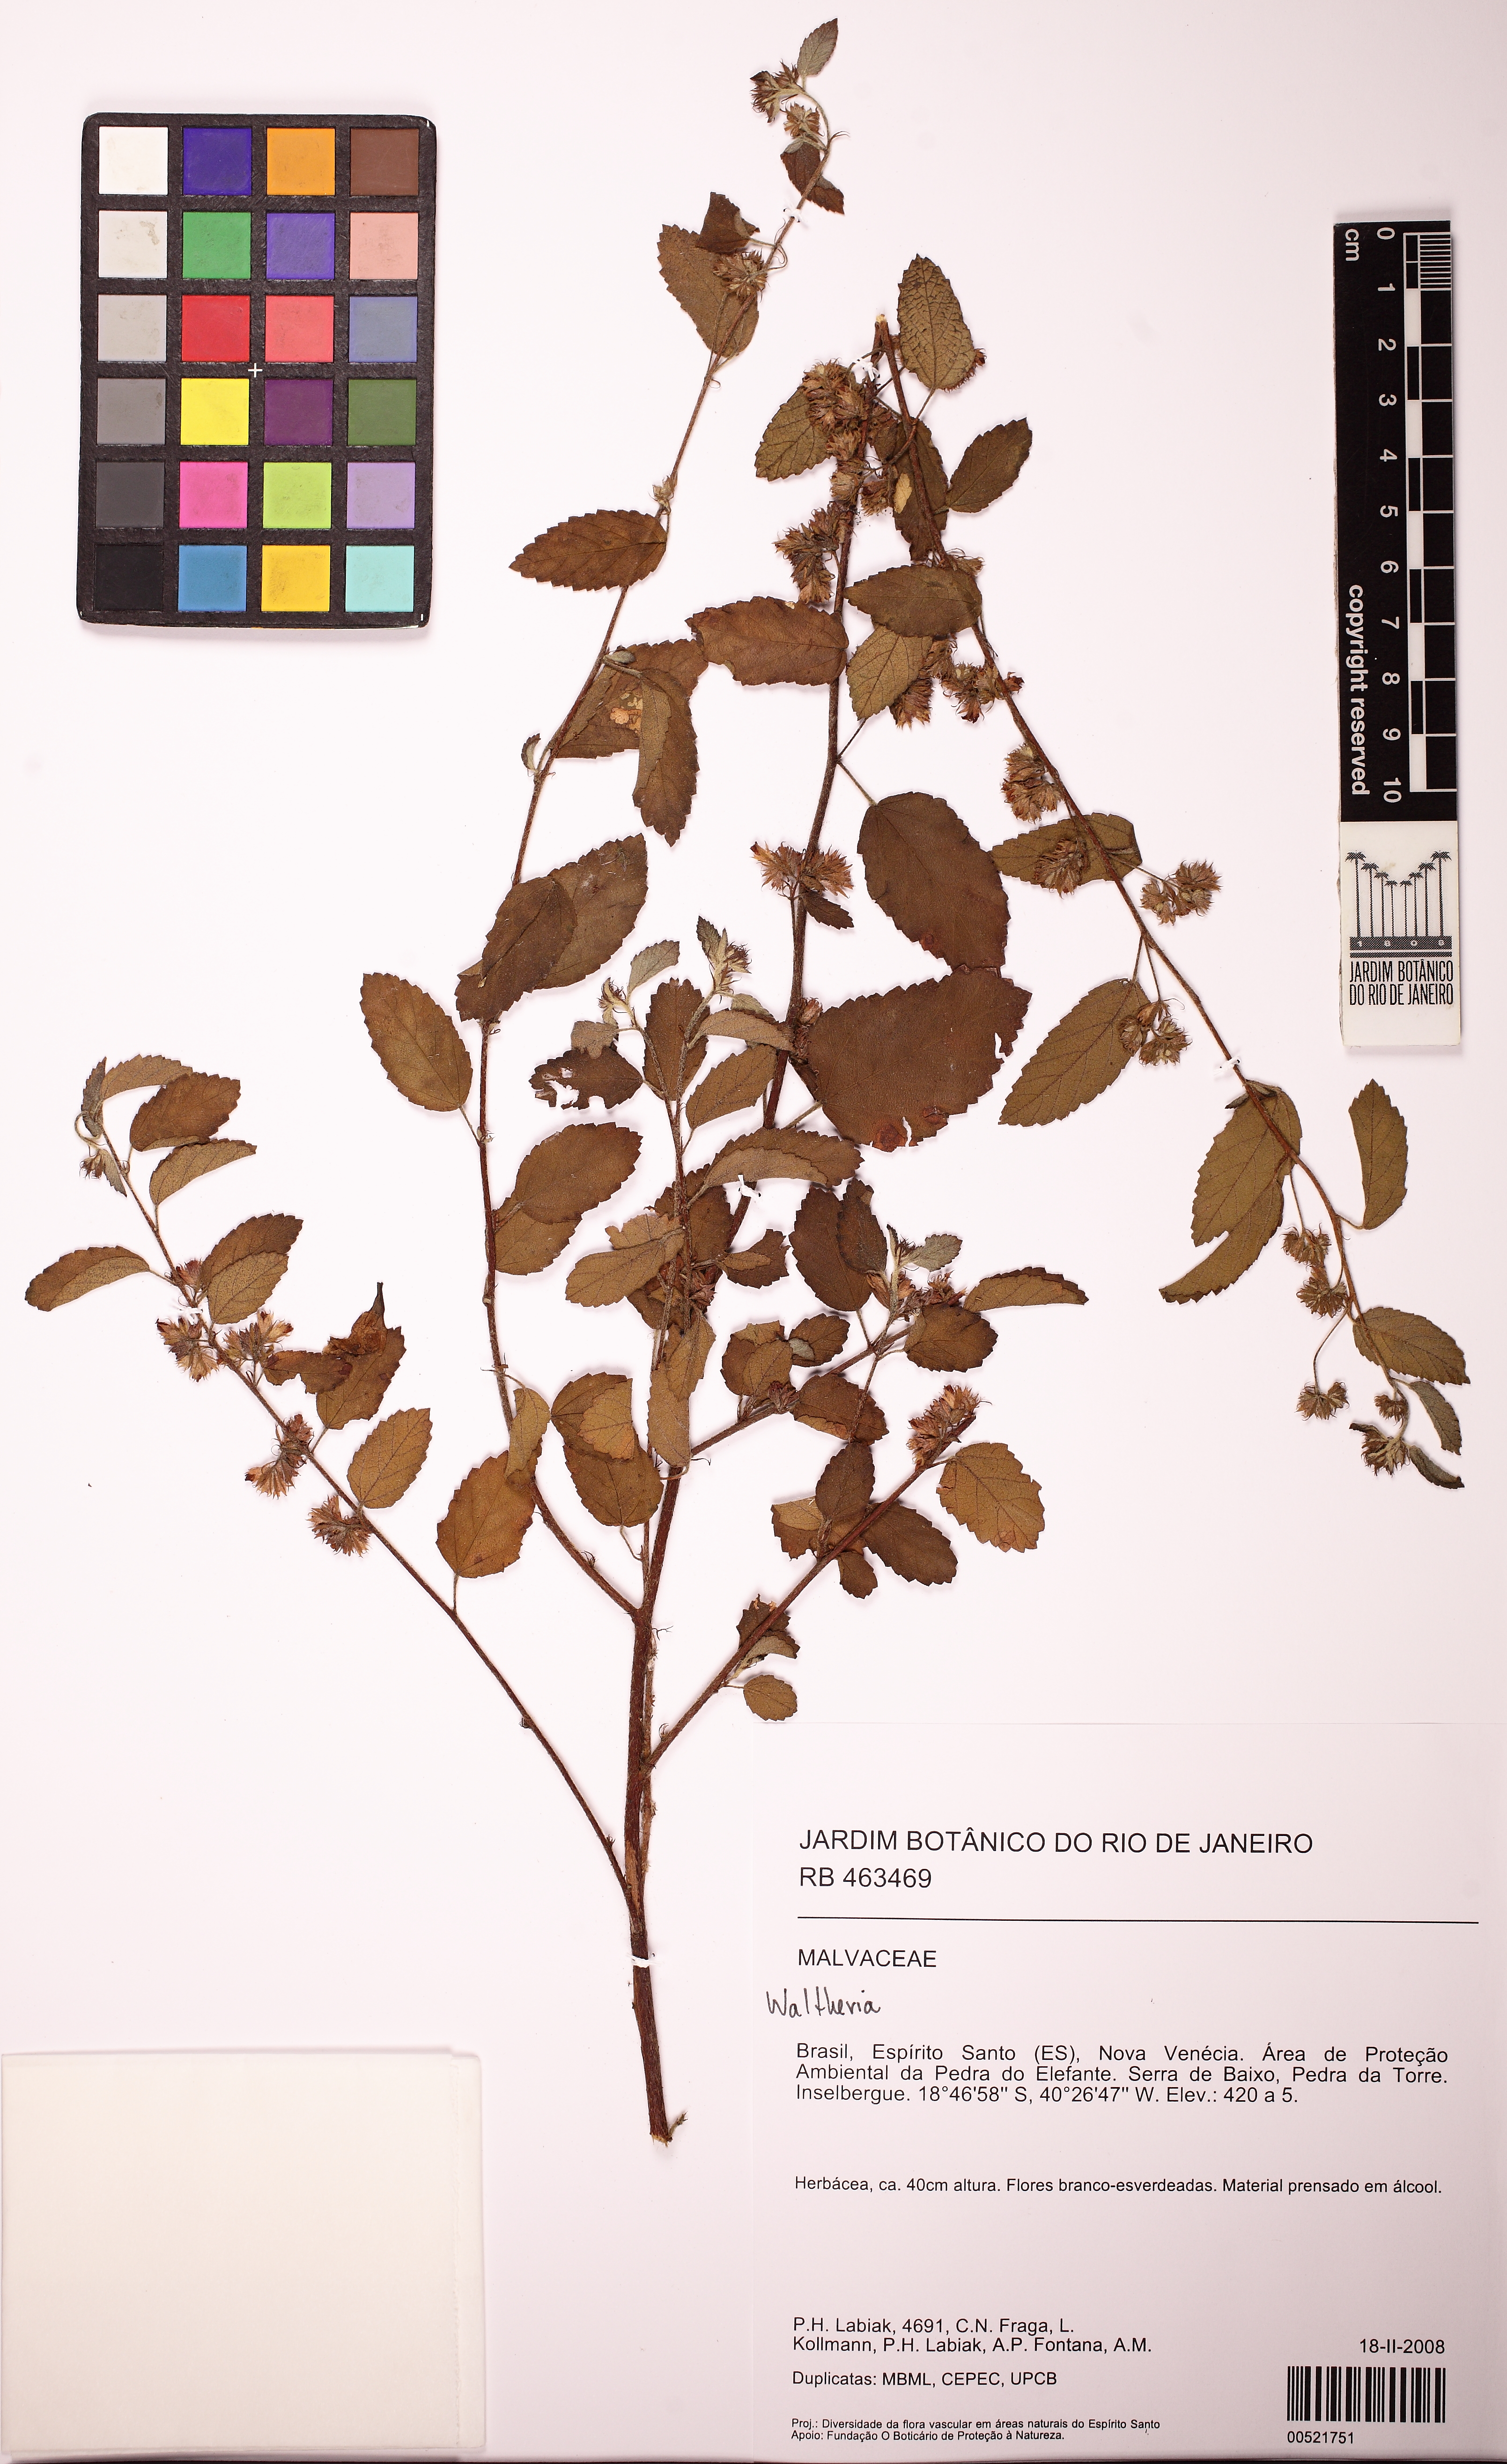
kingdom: Plantae
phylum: Tracheophyta
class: Magnoliopsida
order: Malvales
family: Malvaceae
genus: Waltheria
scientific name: Waltheria
